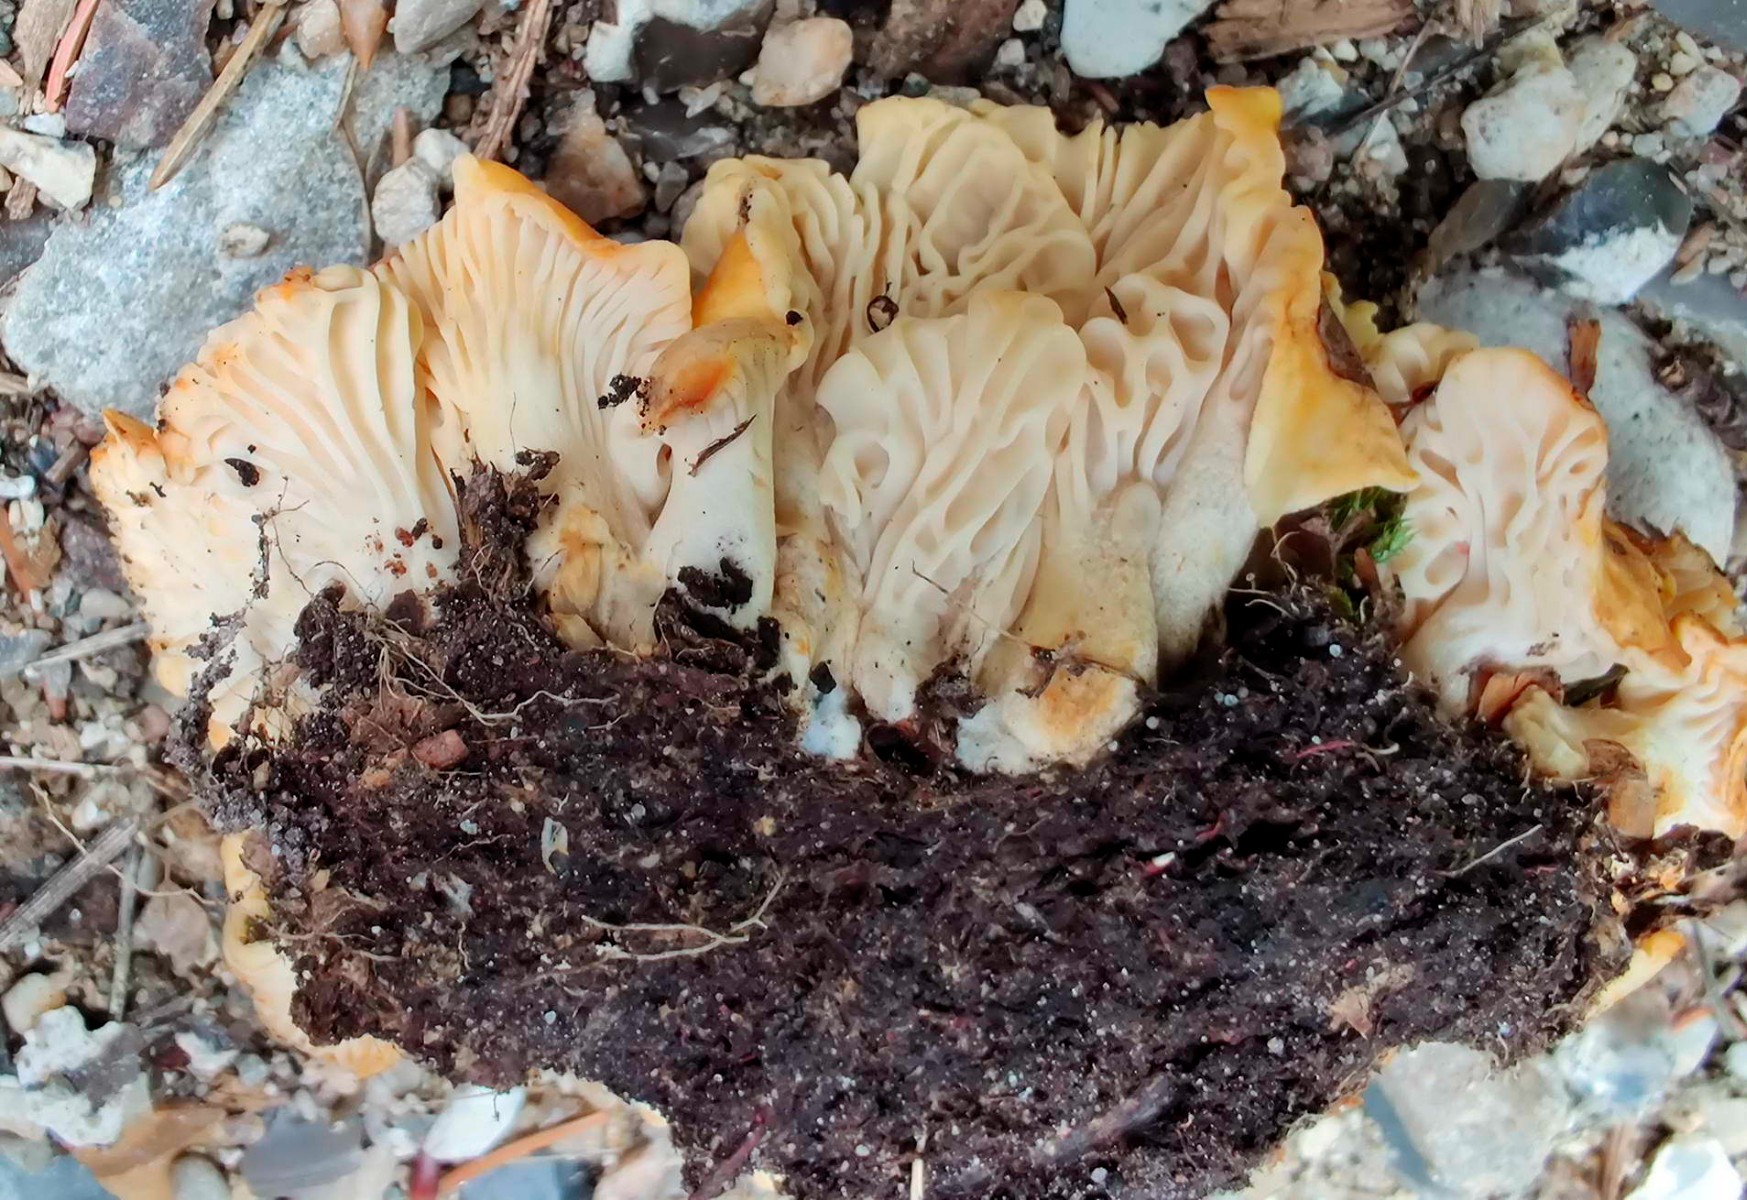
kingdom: Fungi
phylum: Basidiomycota
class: Agaricomycetes
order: Cantharellales
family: Hydnaceae
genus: Cantharellus
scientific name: Cantharellus amethysteus
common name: ametyst-kantarel
